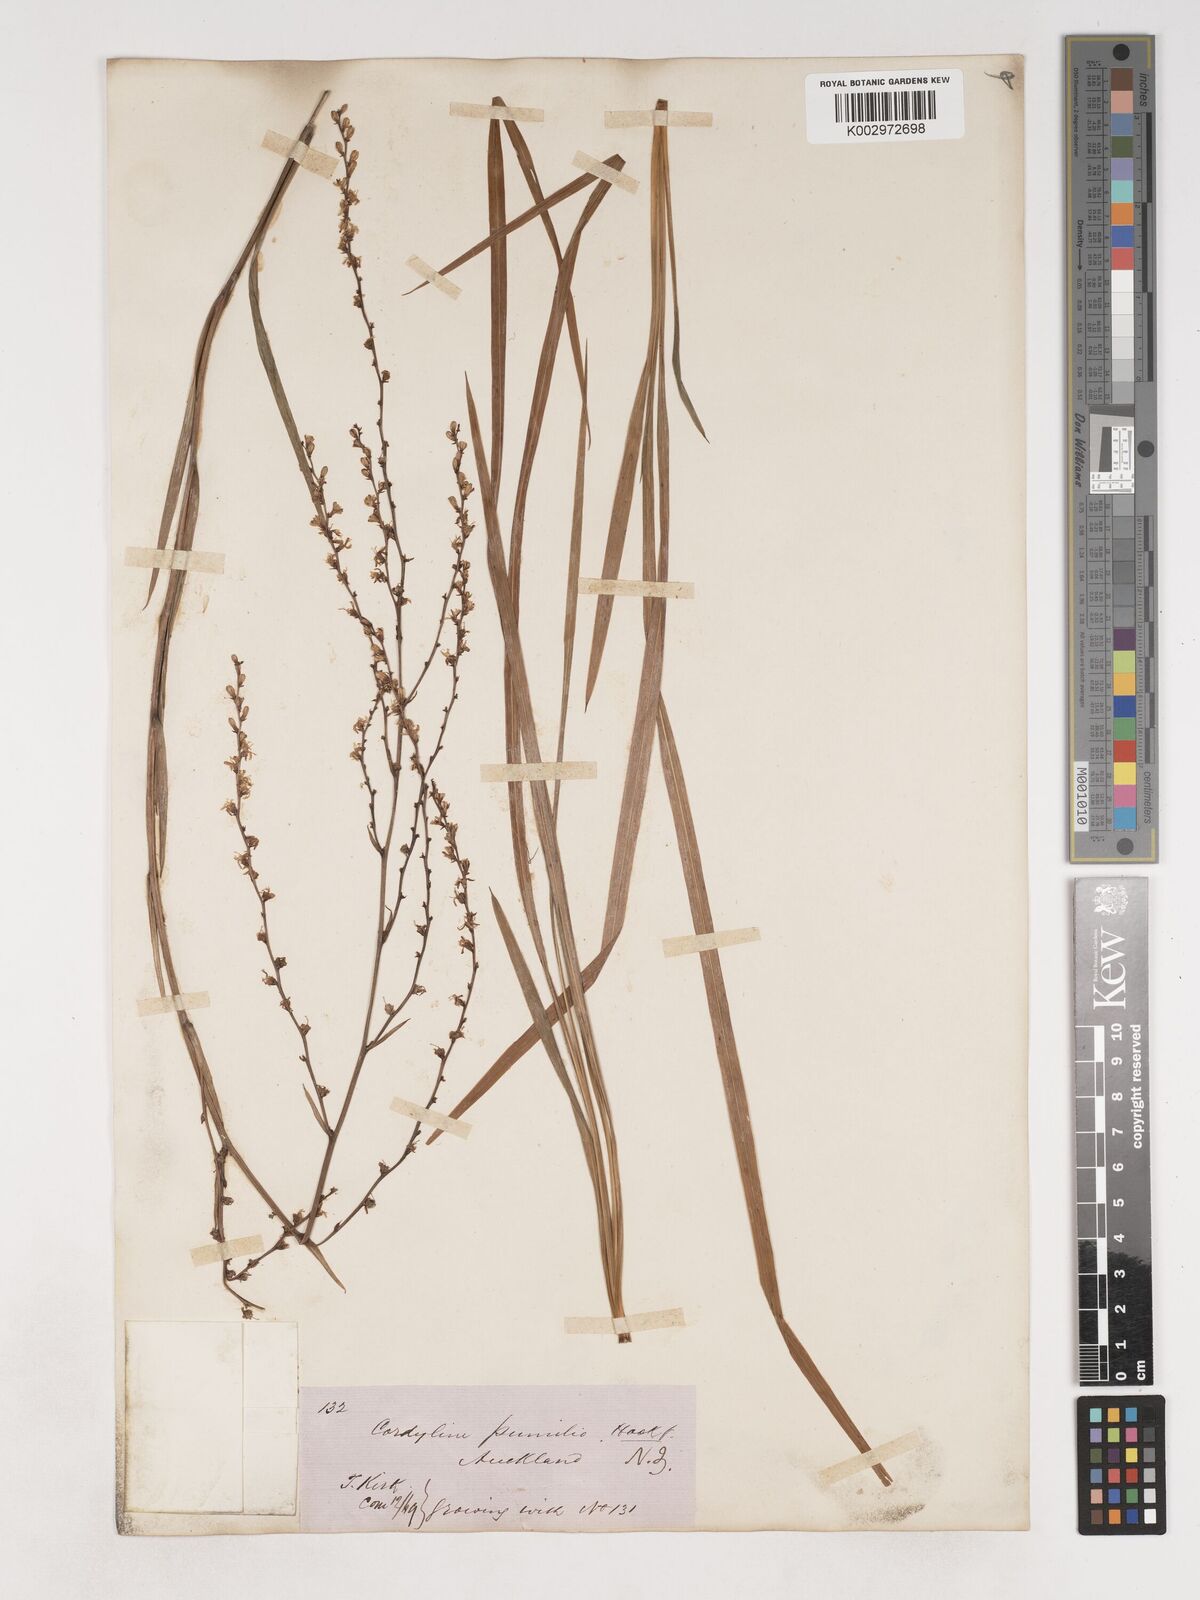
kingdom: Plantae
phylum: Tracheophyta
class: Liliopsida
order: Asparagales
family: Asparagaceae
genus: Cordyline
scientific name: Cordyline pumilio
